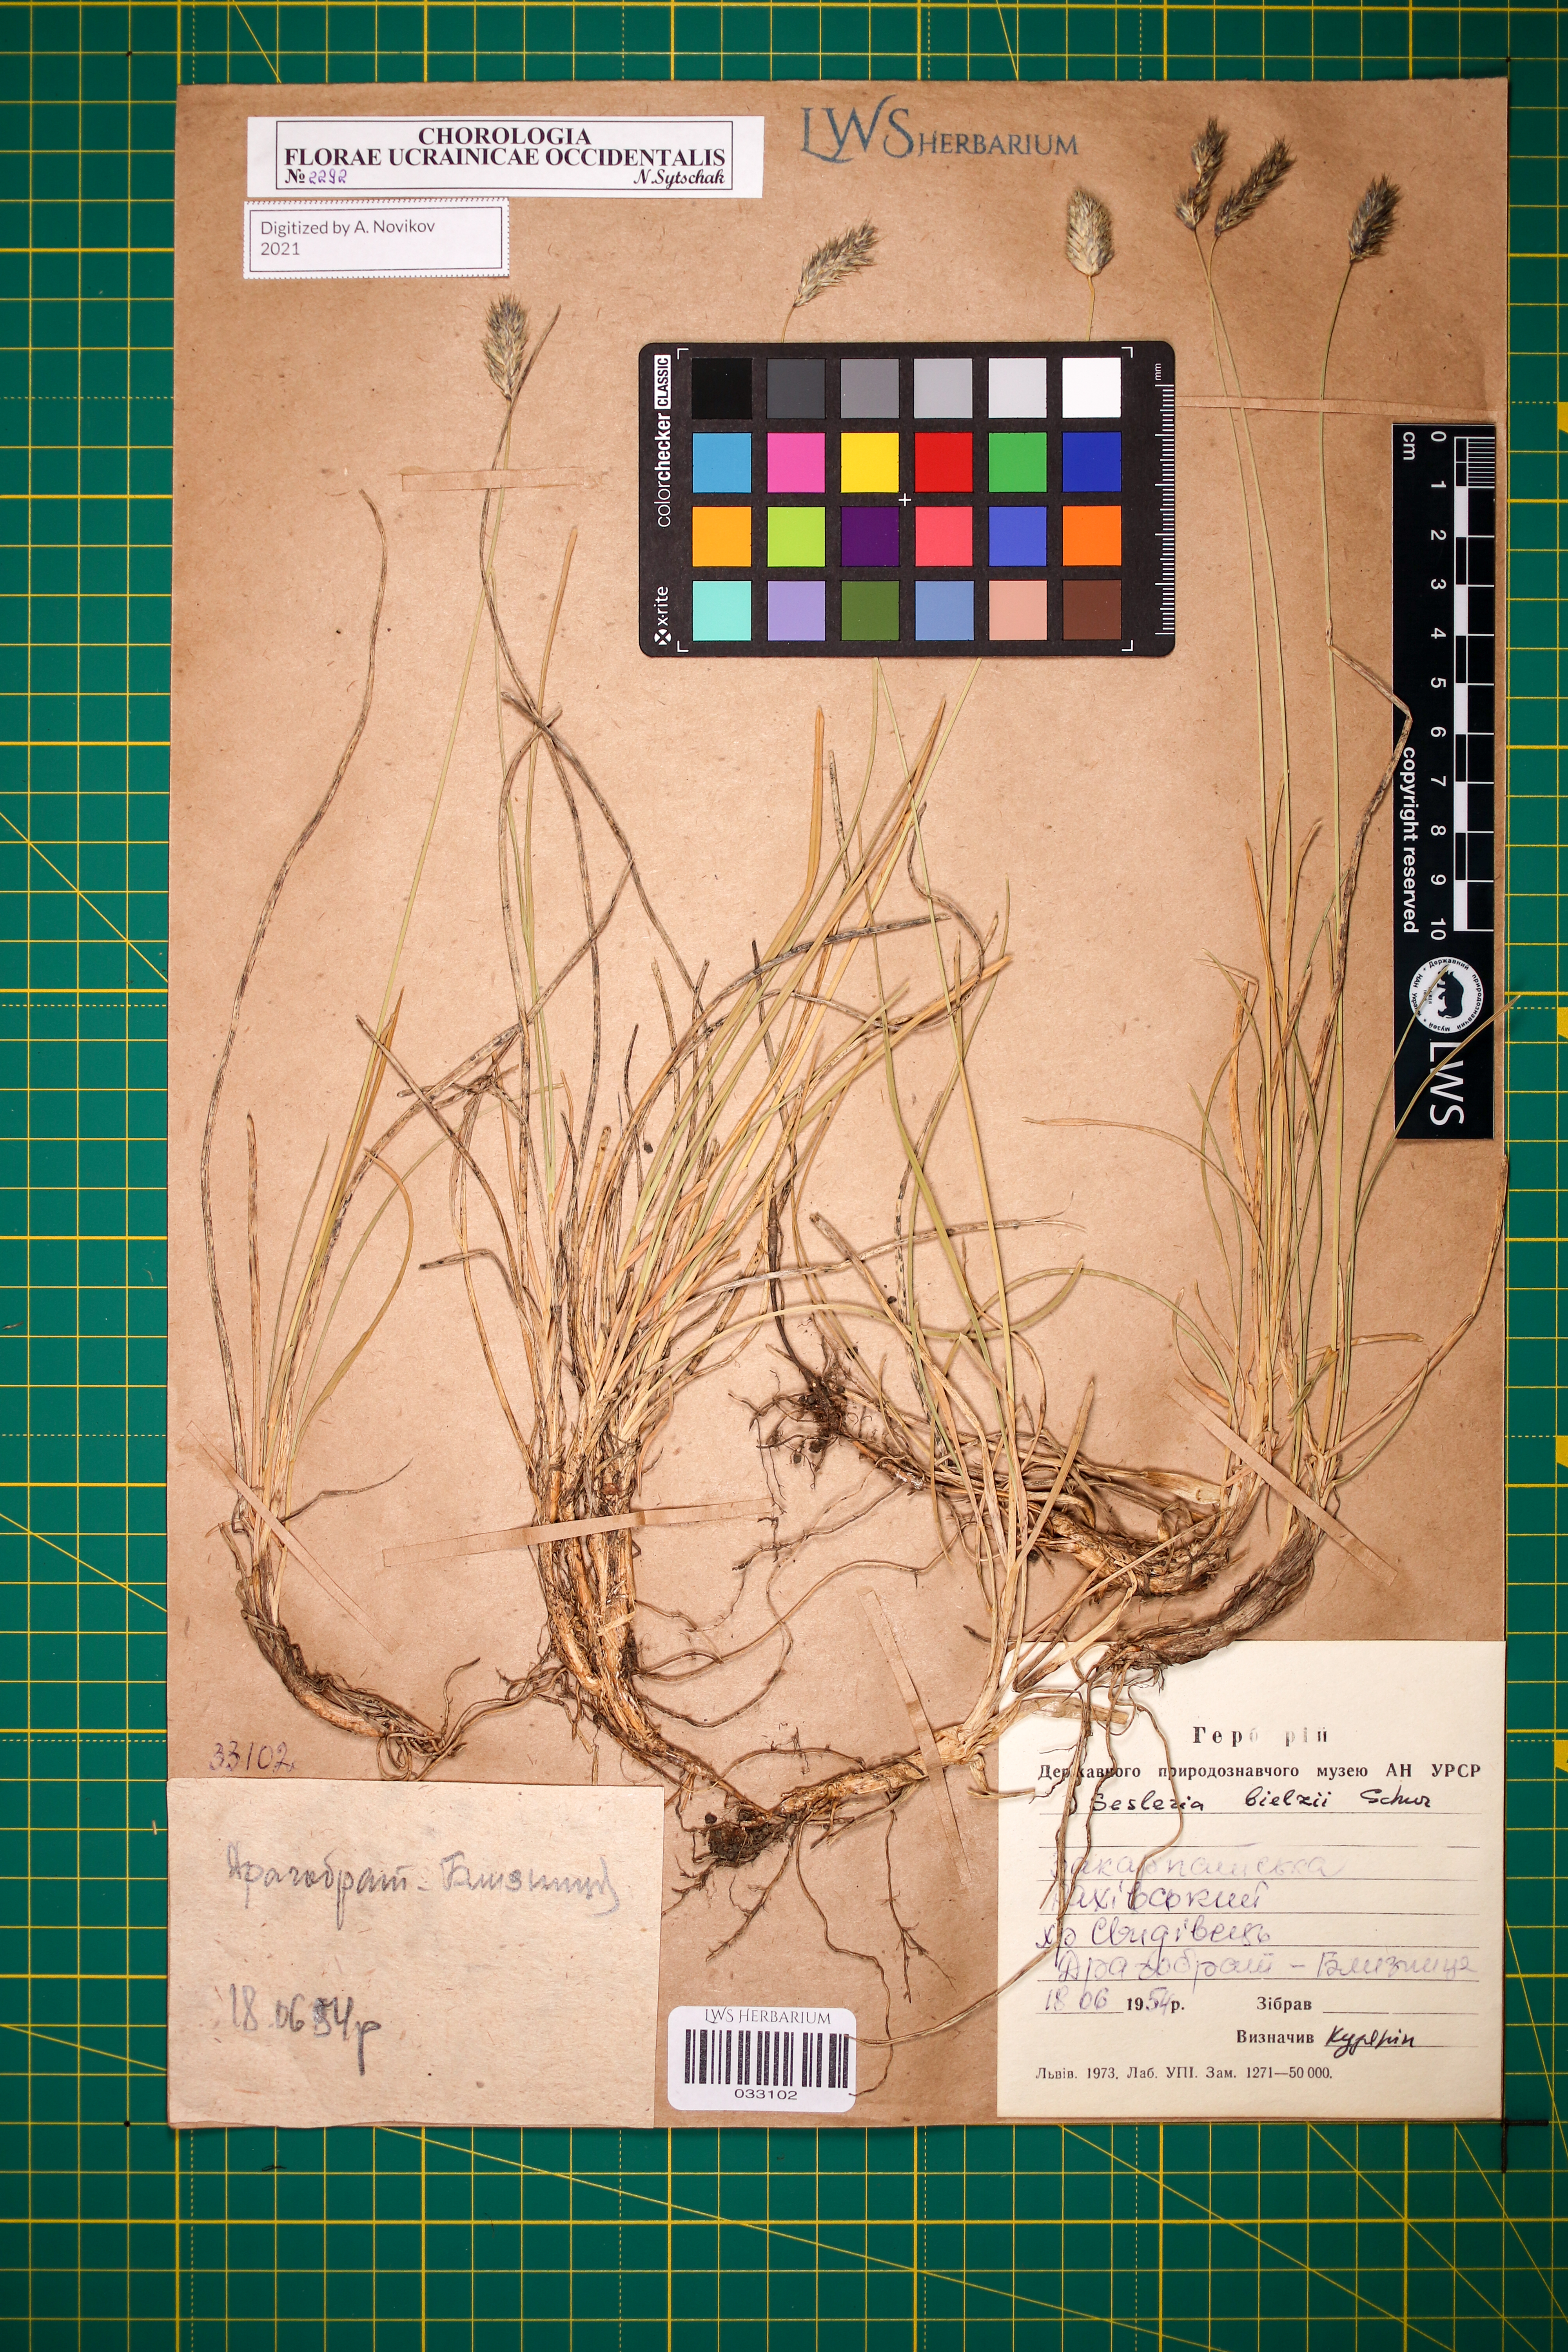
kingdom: Plantae
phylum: Tracheophyta
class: Liliopsida
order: Poales
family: Poaceae
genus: Sesleria
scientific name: Sesleria bielzii
